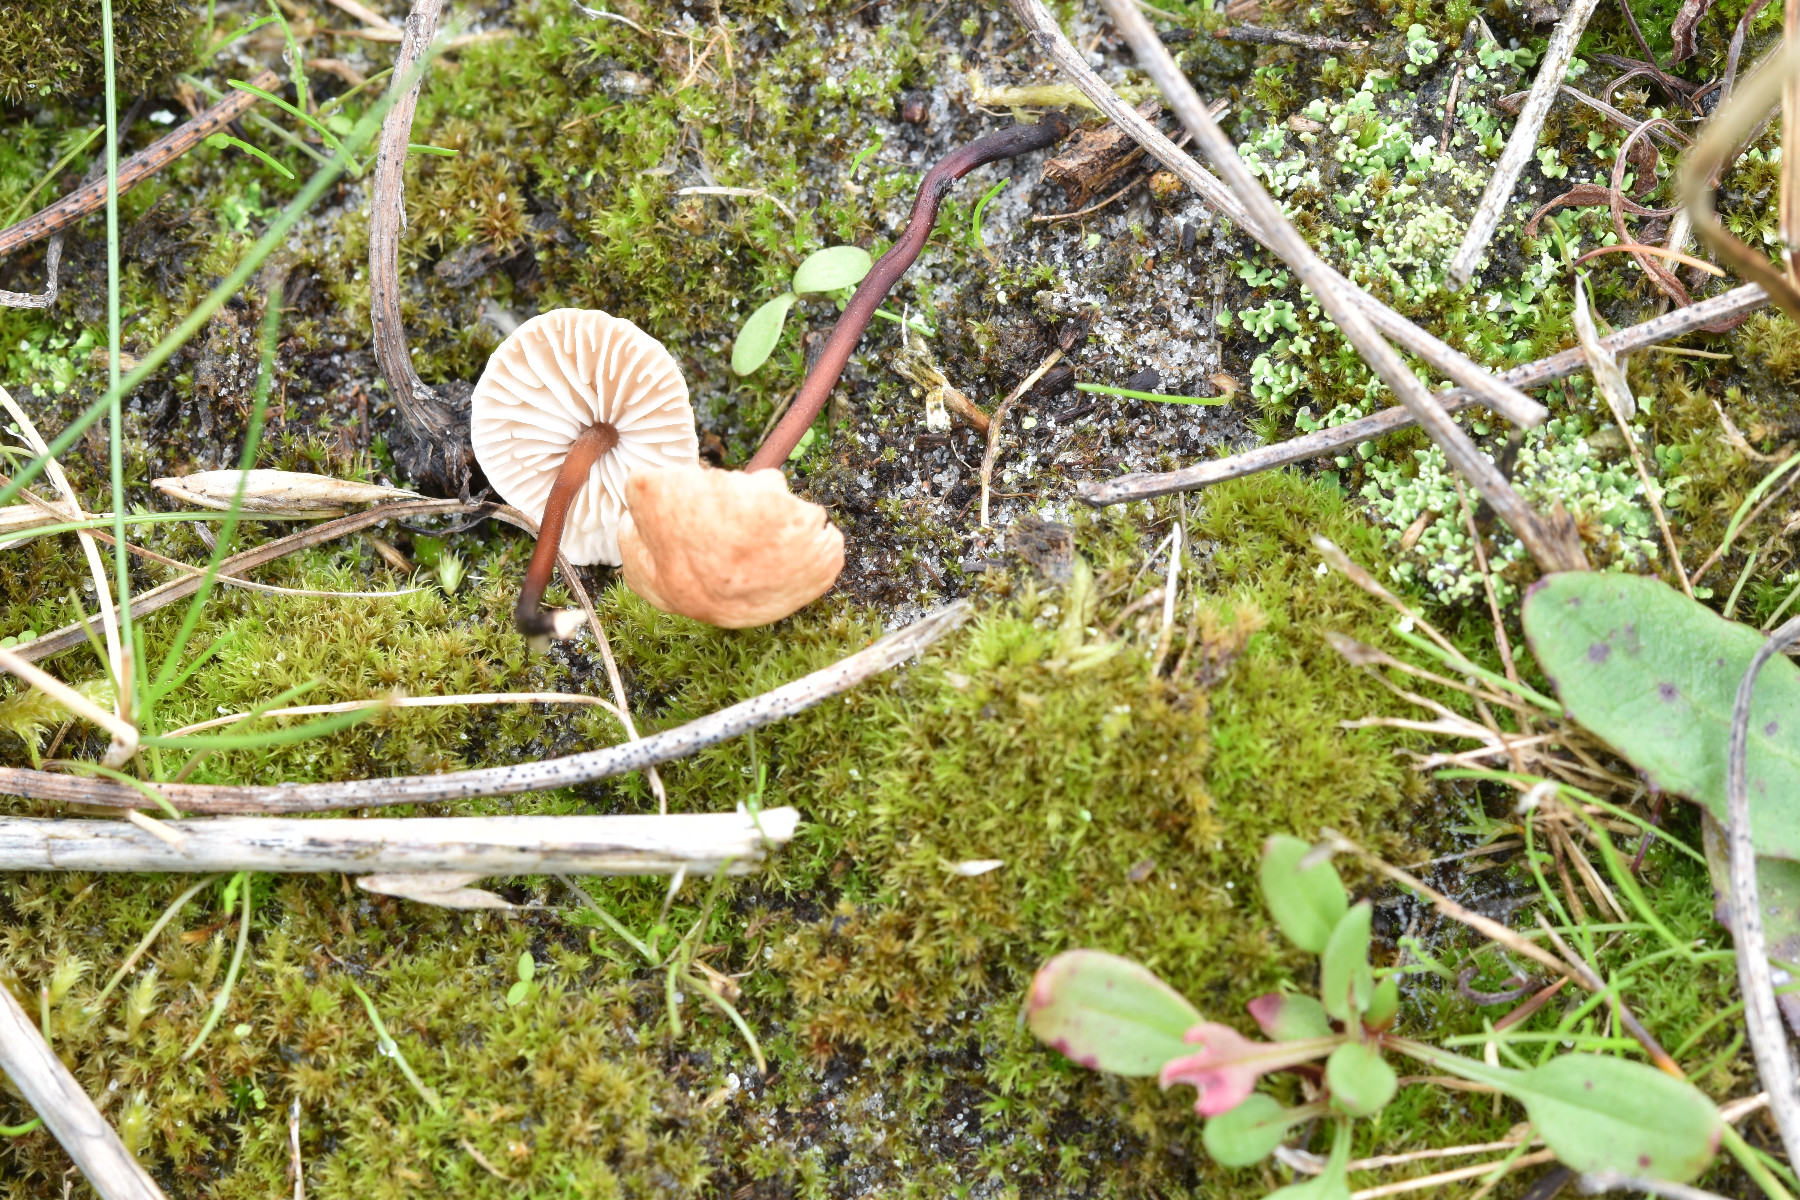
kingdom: Fungi
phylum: Basidiomycota
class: Agaricomycetes
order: Agaricales
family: Omphalotaceae
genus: Mycetinis
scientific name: Mycetinis scorodonius
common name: lille løghat
